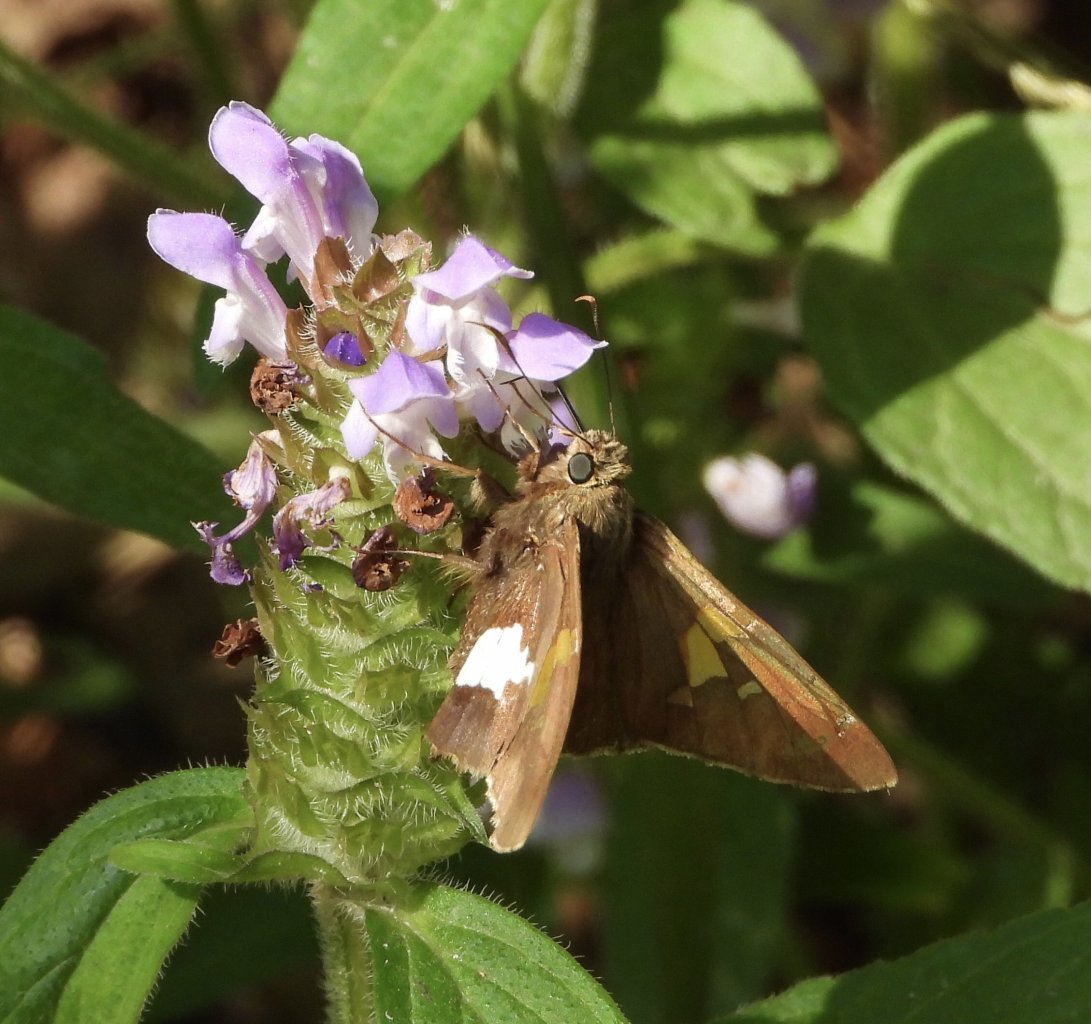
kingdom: Animalia
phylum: Arthropoda
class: Insecta
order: Lepidoptera
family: Hesperiidae
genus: Epargyreus
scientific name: Epargyreus clarus
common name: Silver-spotted Skipper
